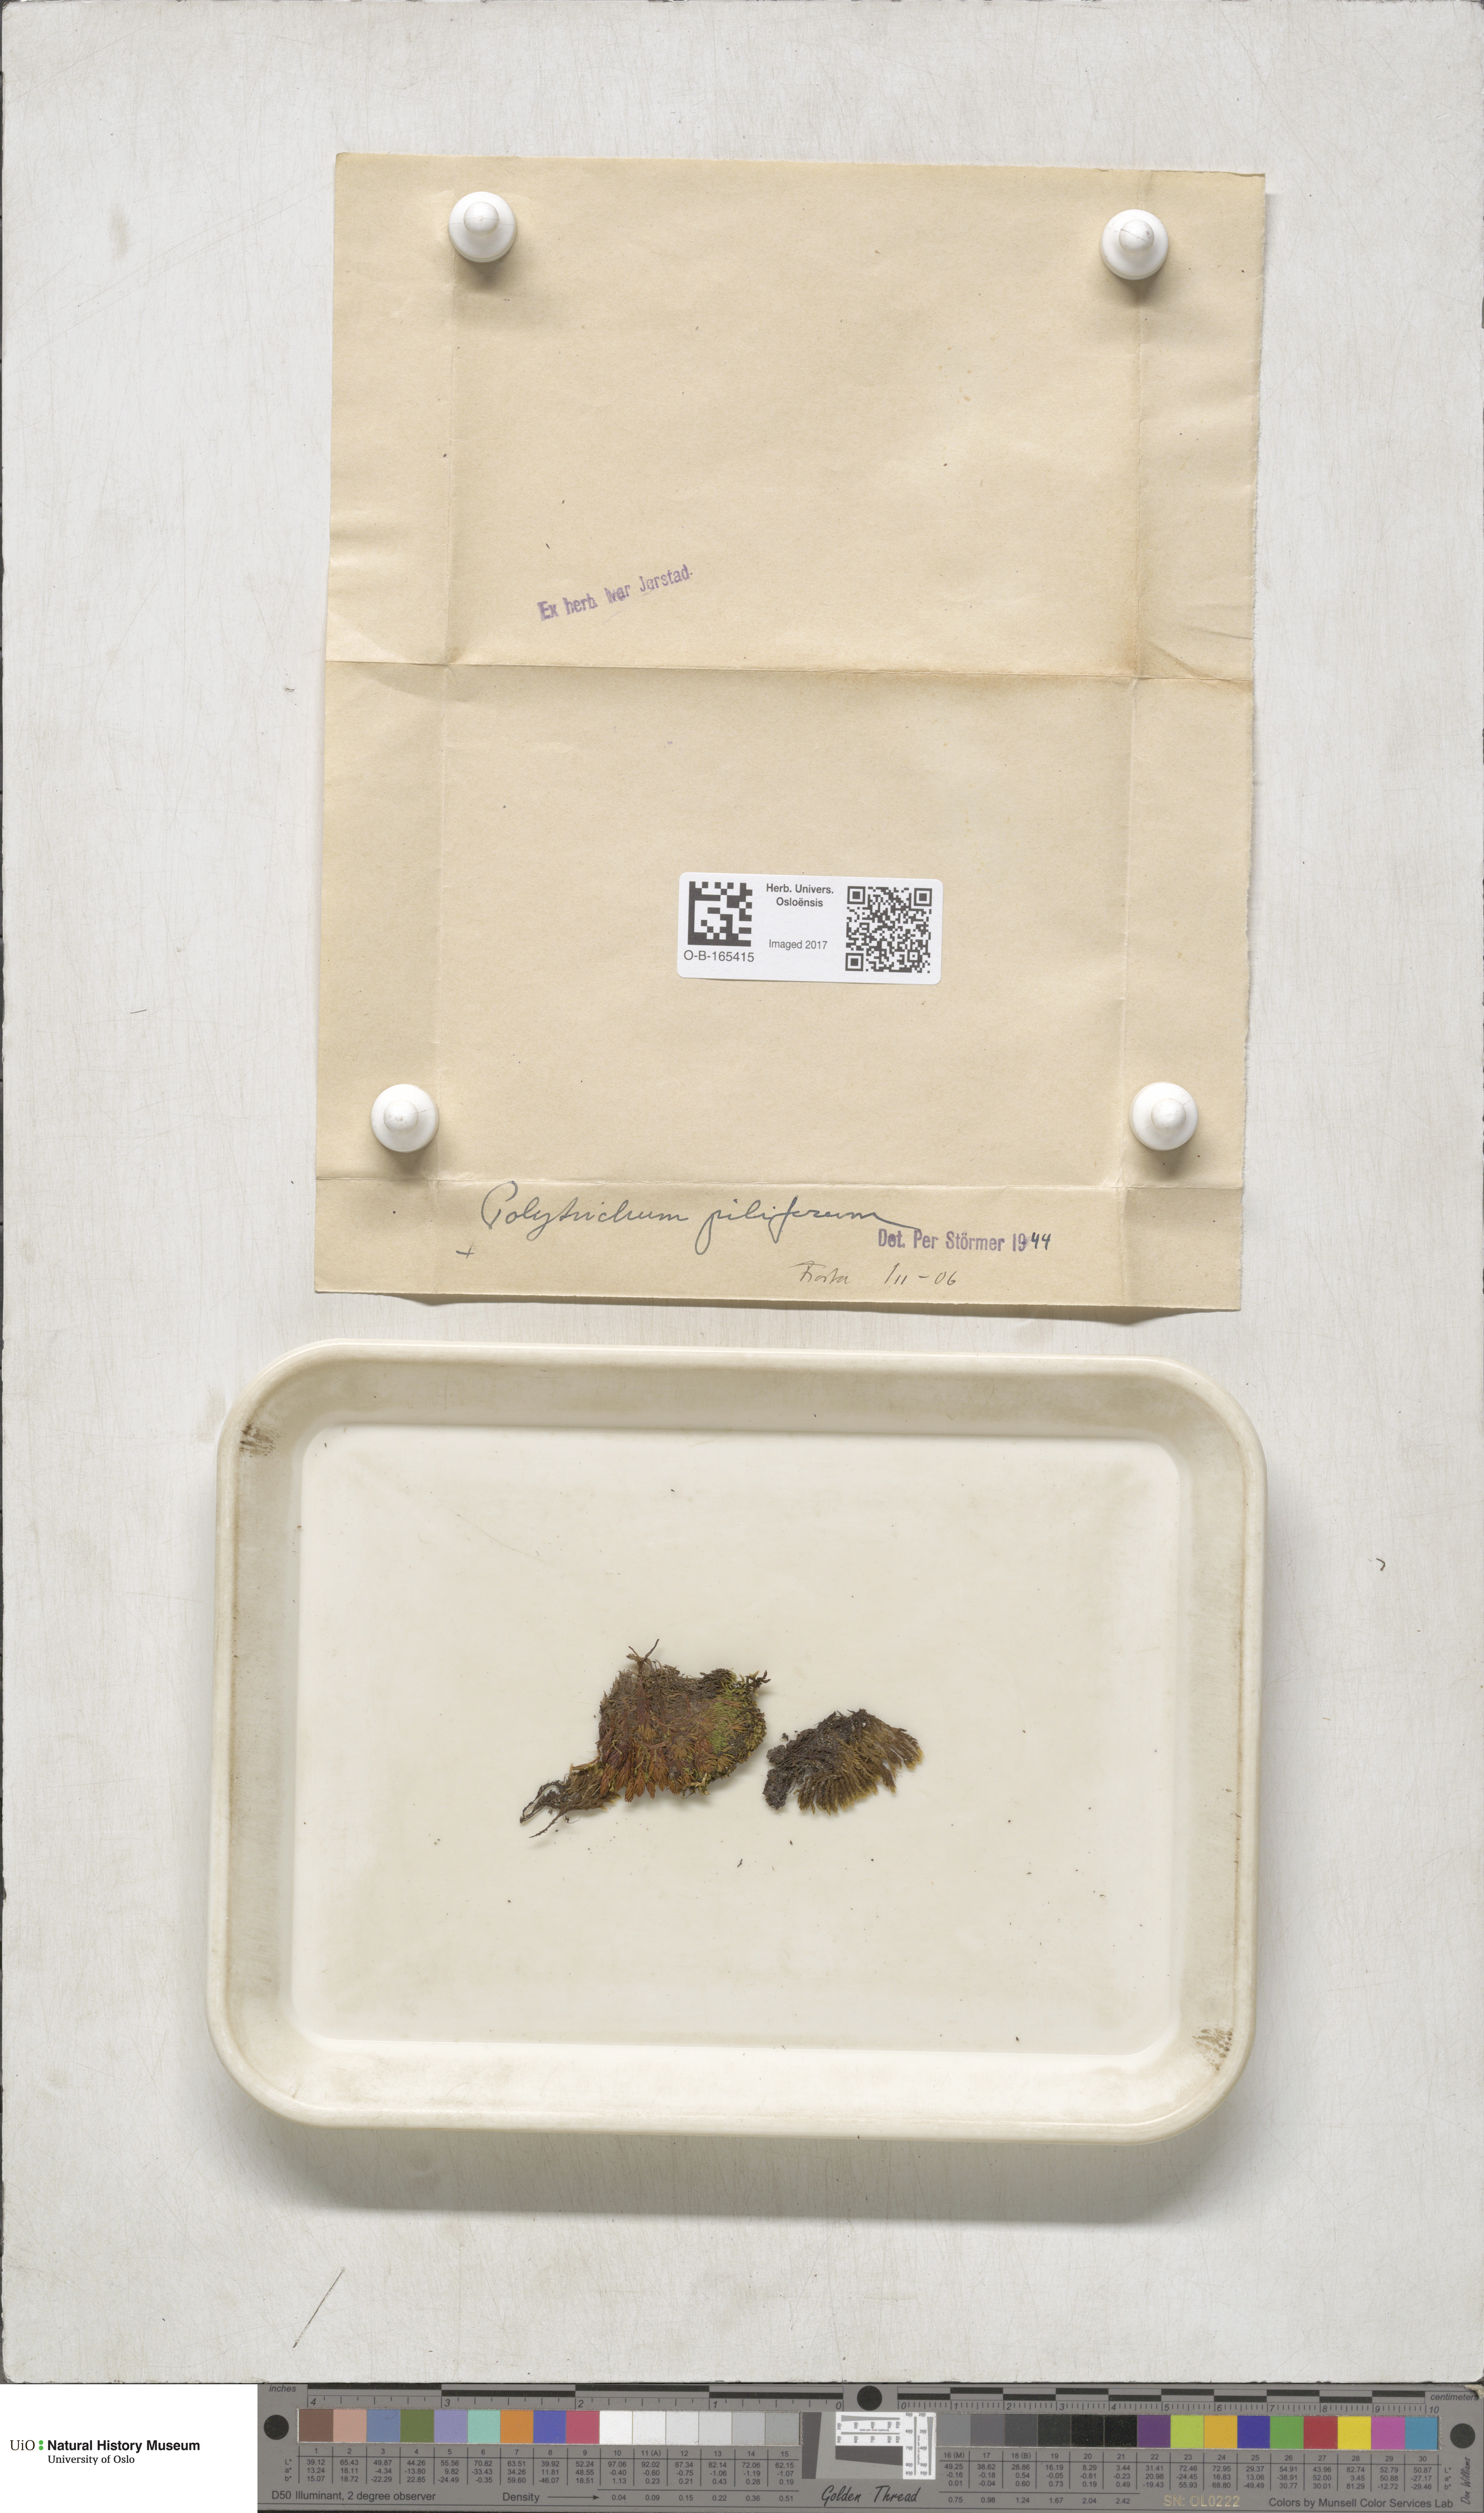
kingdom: Plantae
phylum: Bryophyta
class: Polytrichopsida
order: Polytrichales
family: Polytrichaceae
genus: Polytrichum
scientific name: Polytrichum piliferum
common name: Bristly haircap
